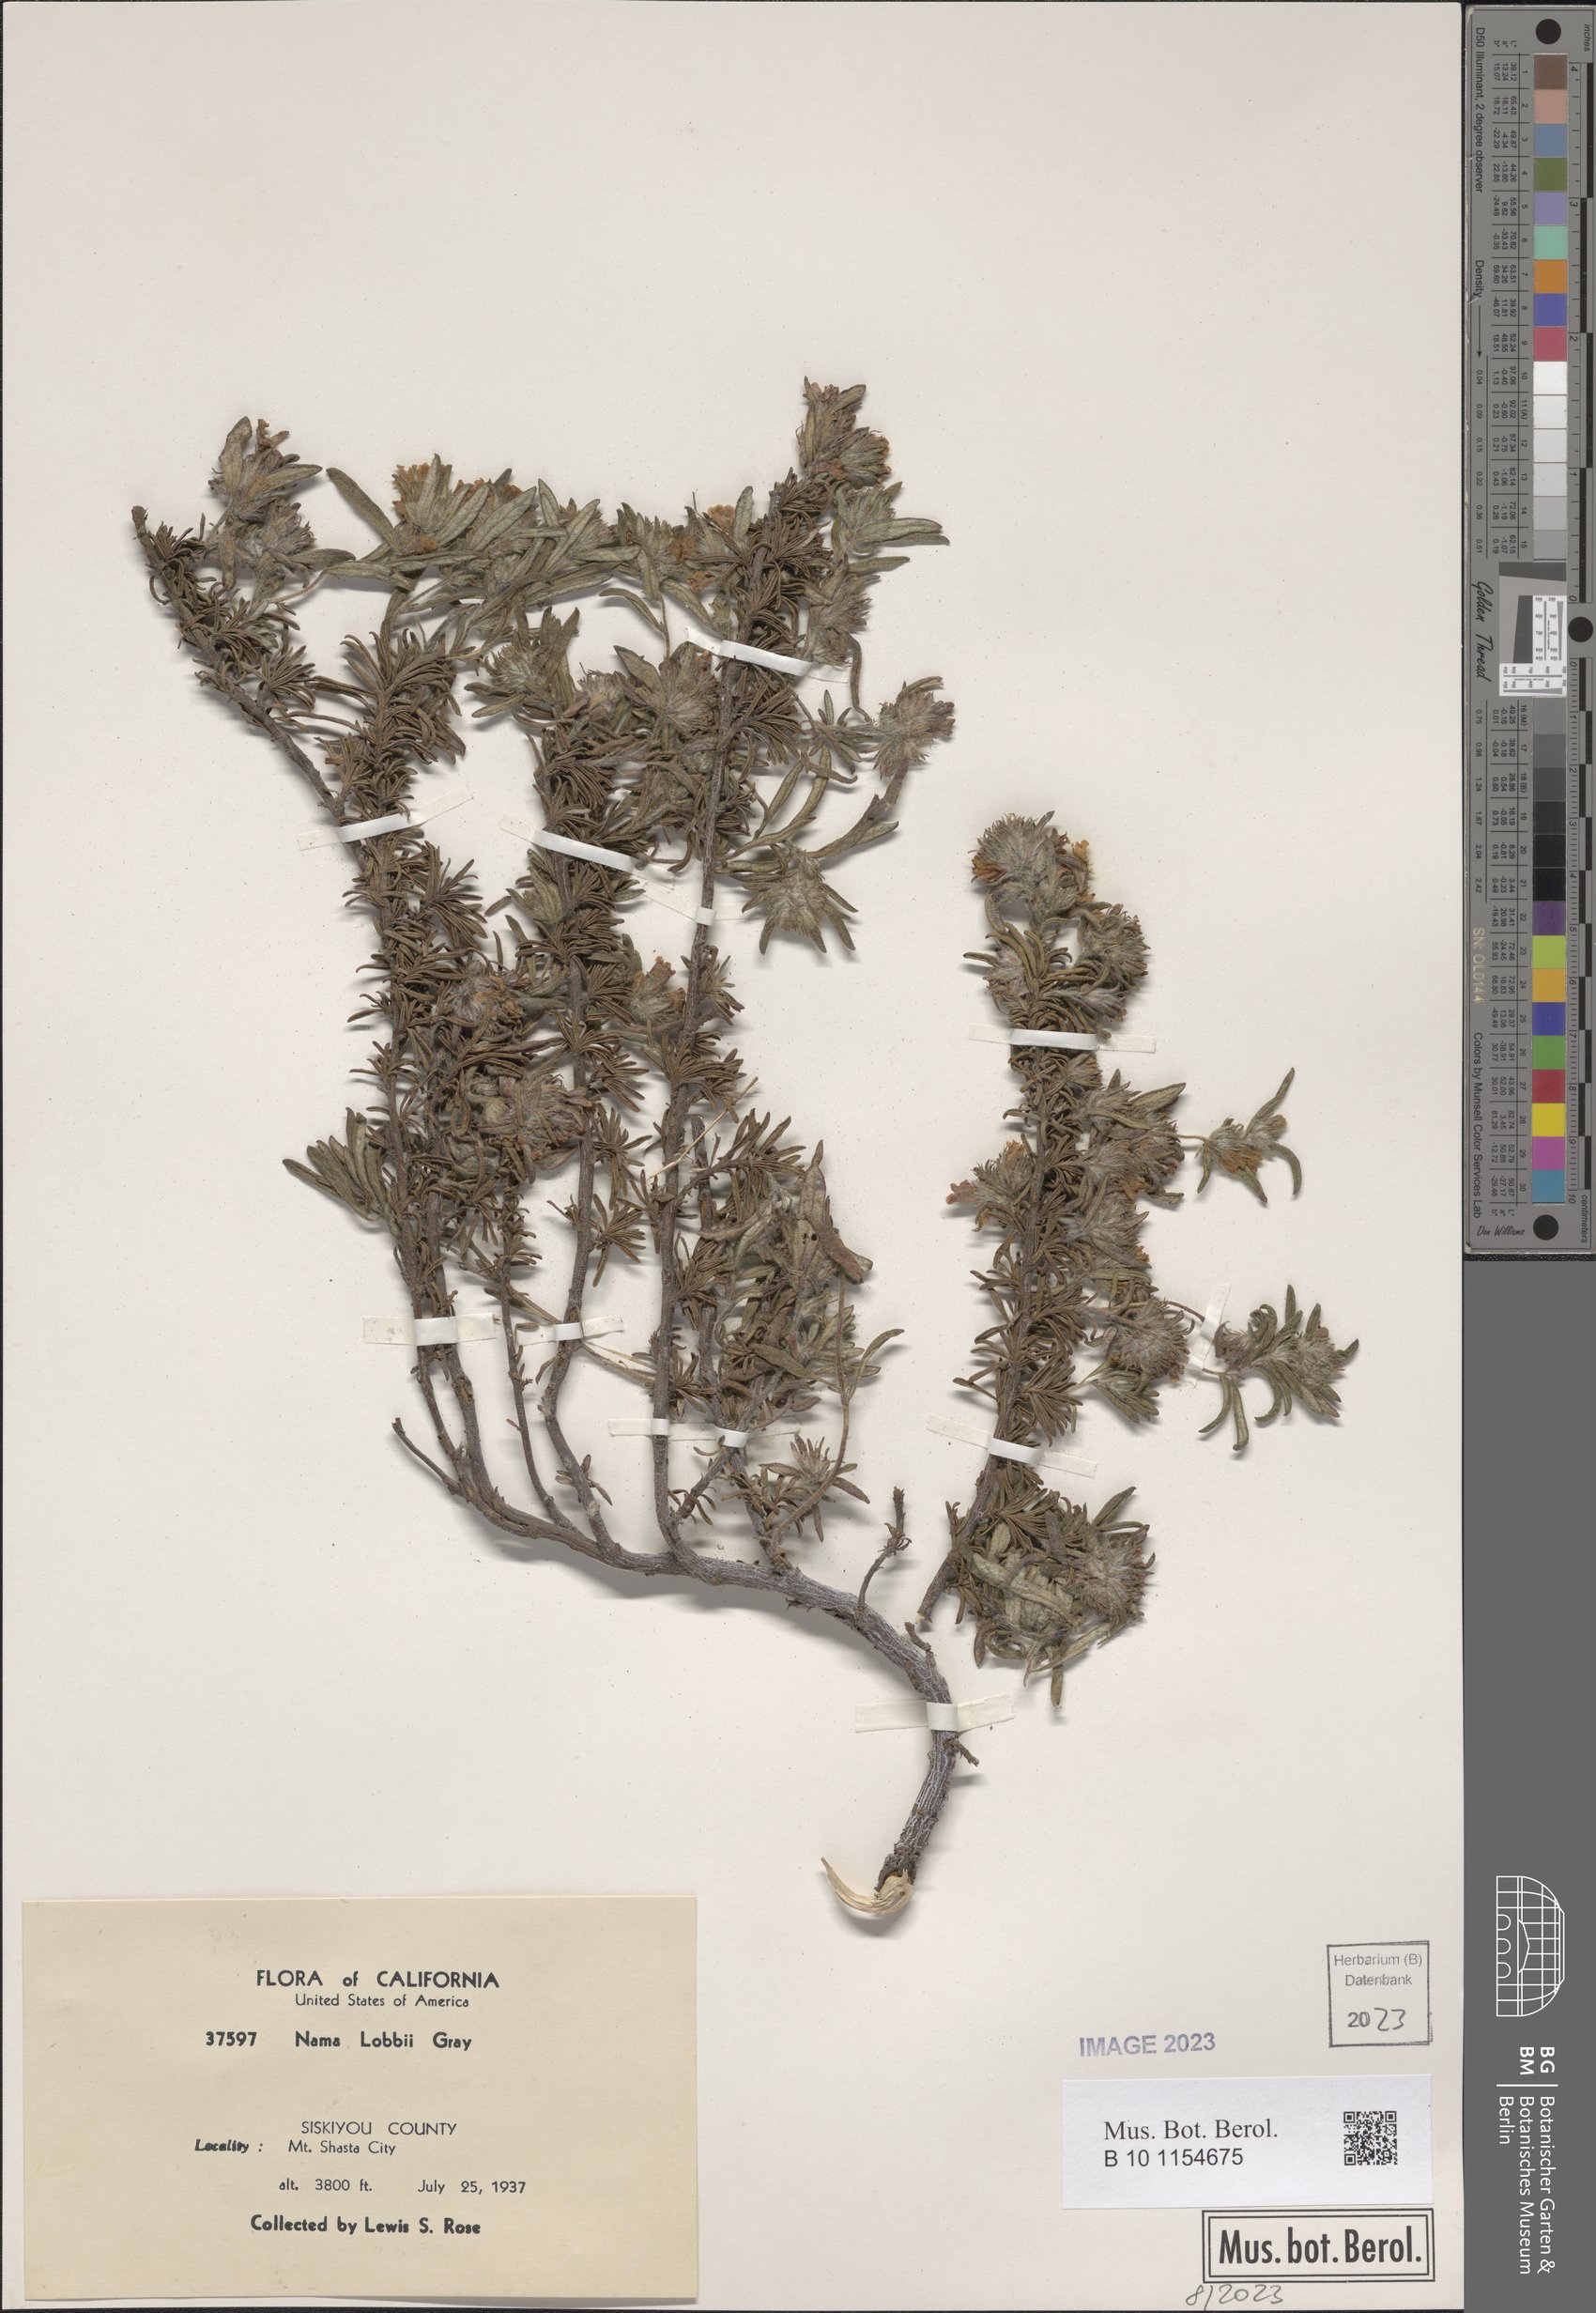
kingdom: Plantae
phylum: Tracheophyta
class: Magnoliopsida
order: Boraginales
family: Namaceae
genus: Nama
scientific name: Nama lobbii
